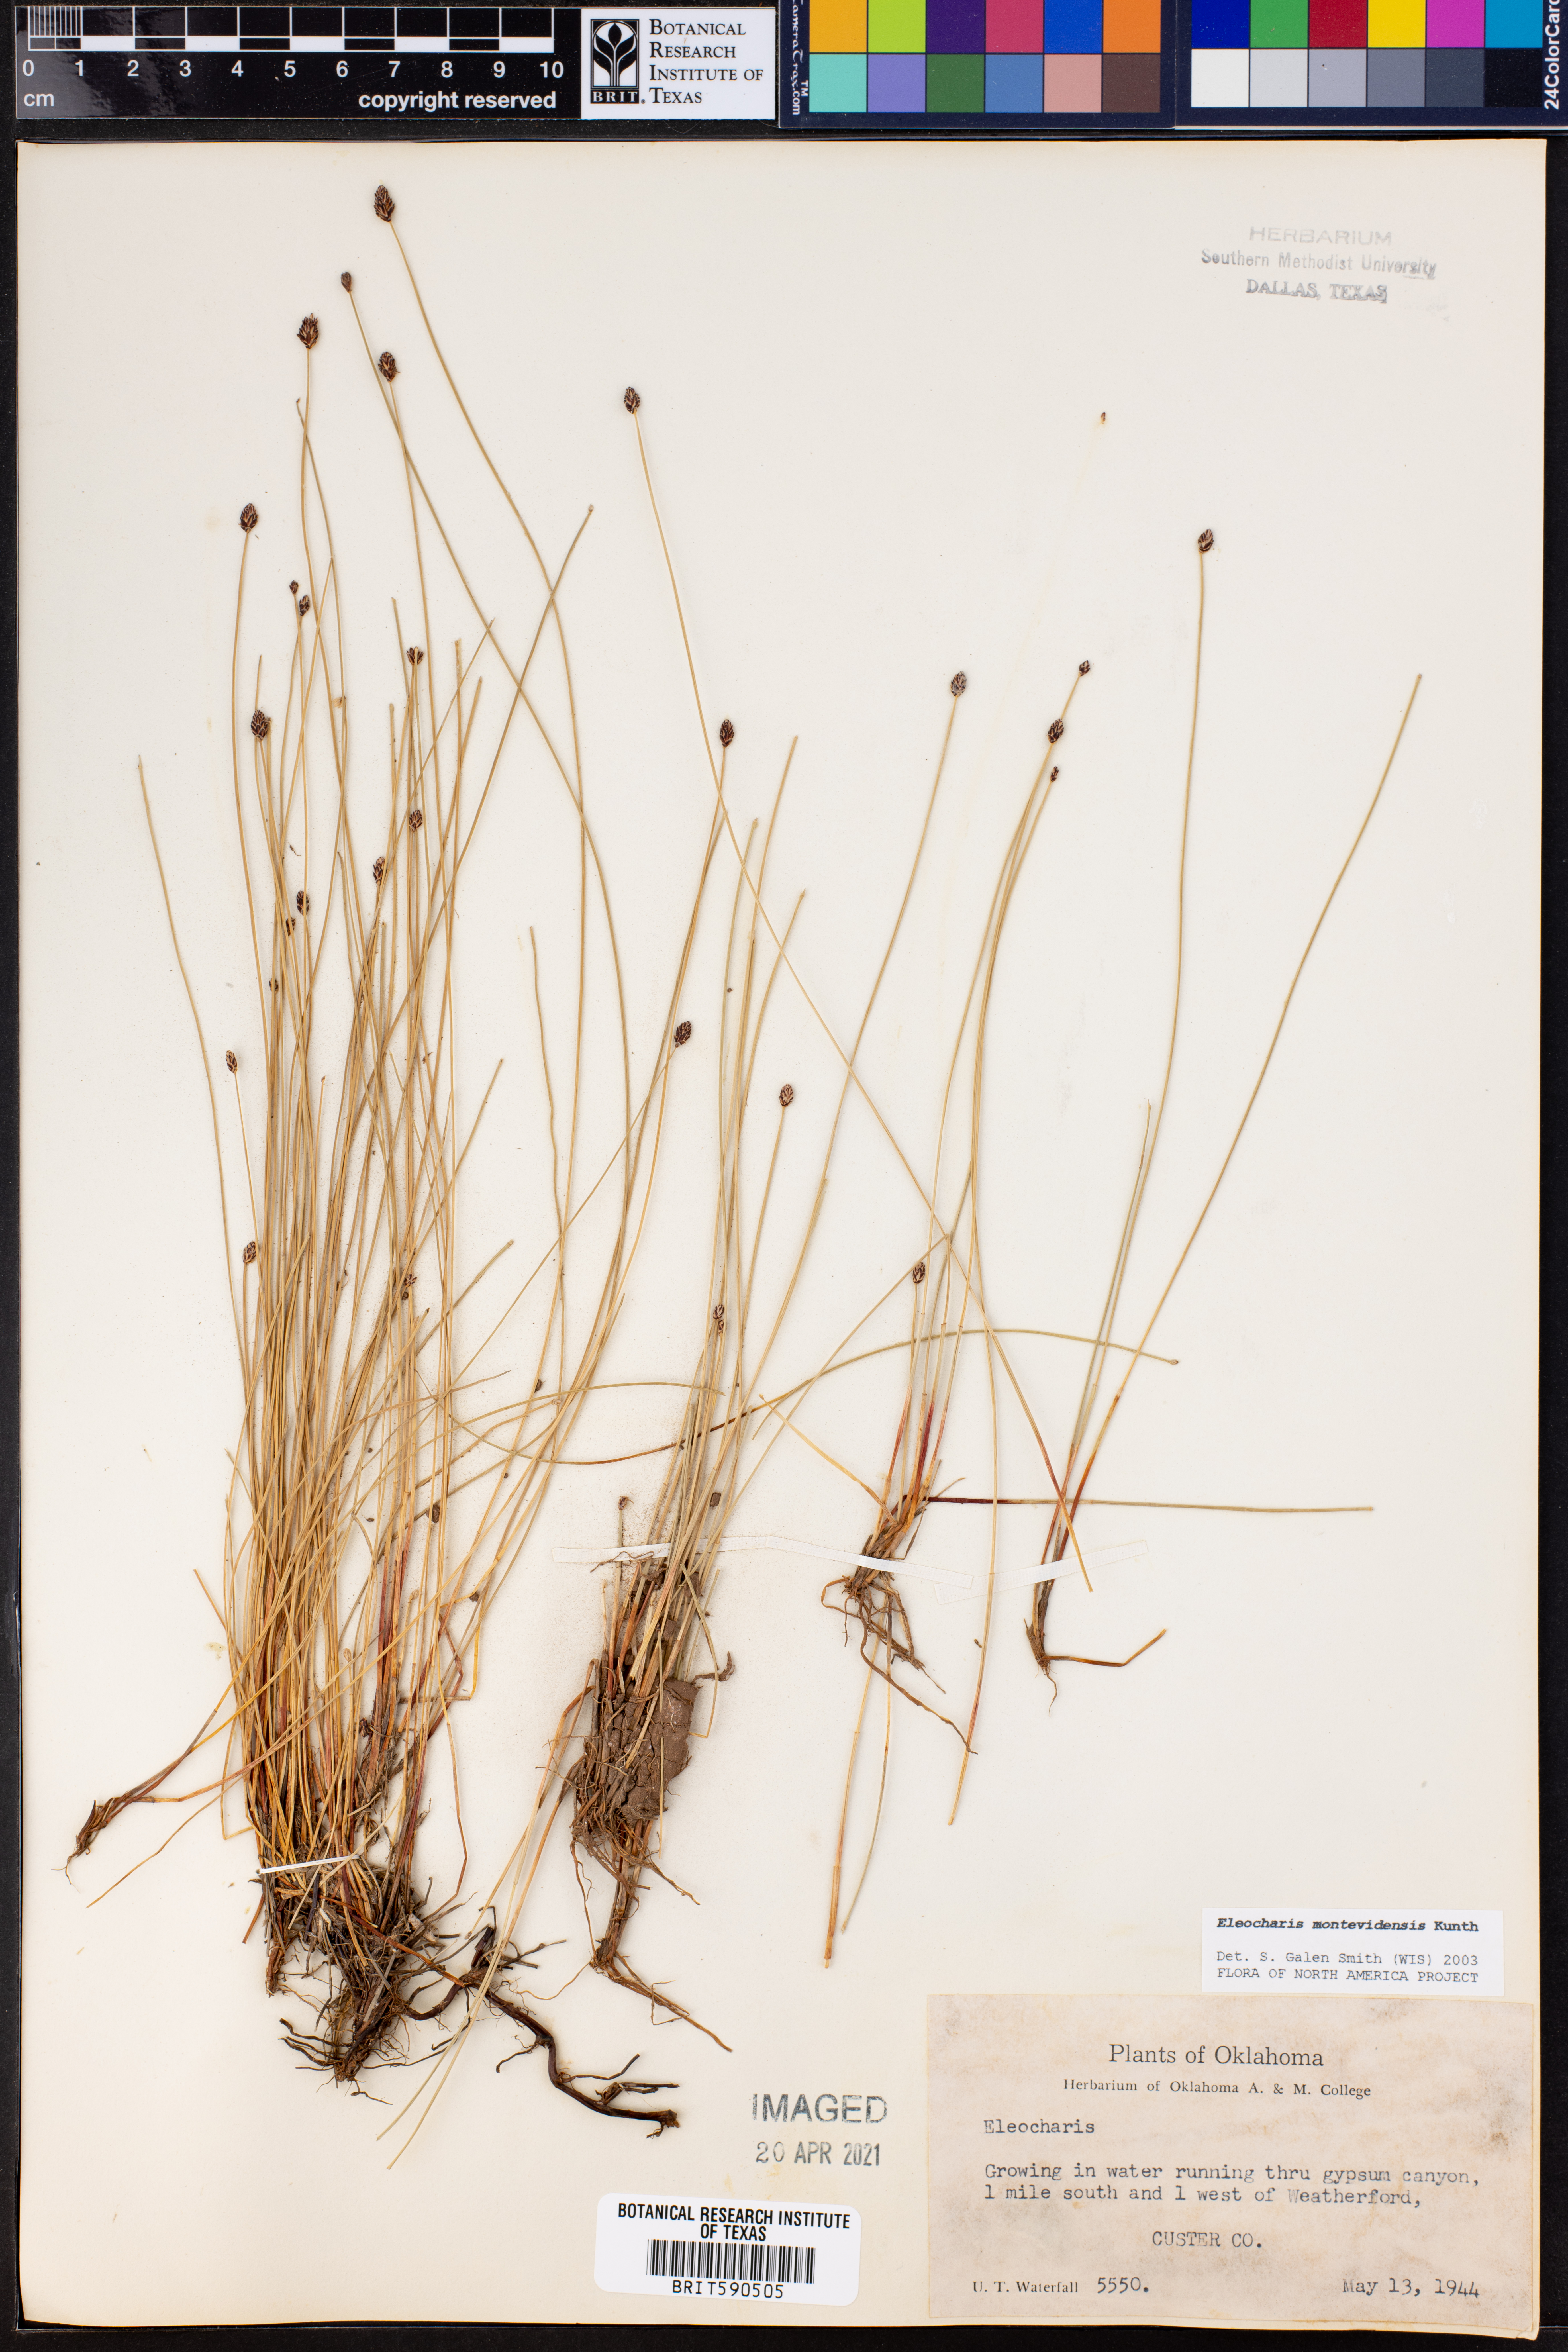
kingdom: Plantae
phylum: Tracheophyta
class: Liliopsida
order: Poales
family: Cyperaceae
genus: Eleocharis
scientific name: Eleocharis montevidensis
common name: Sand spike-rush
